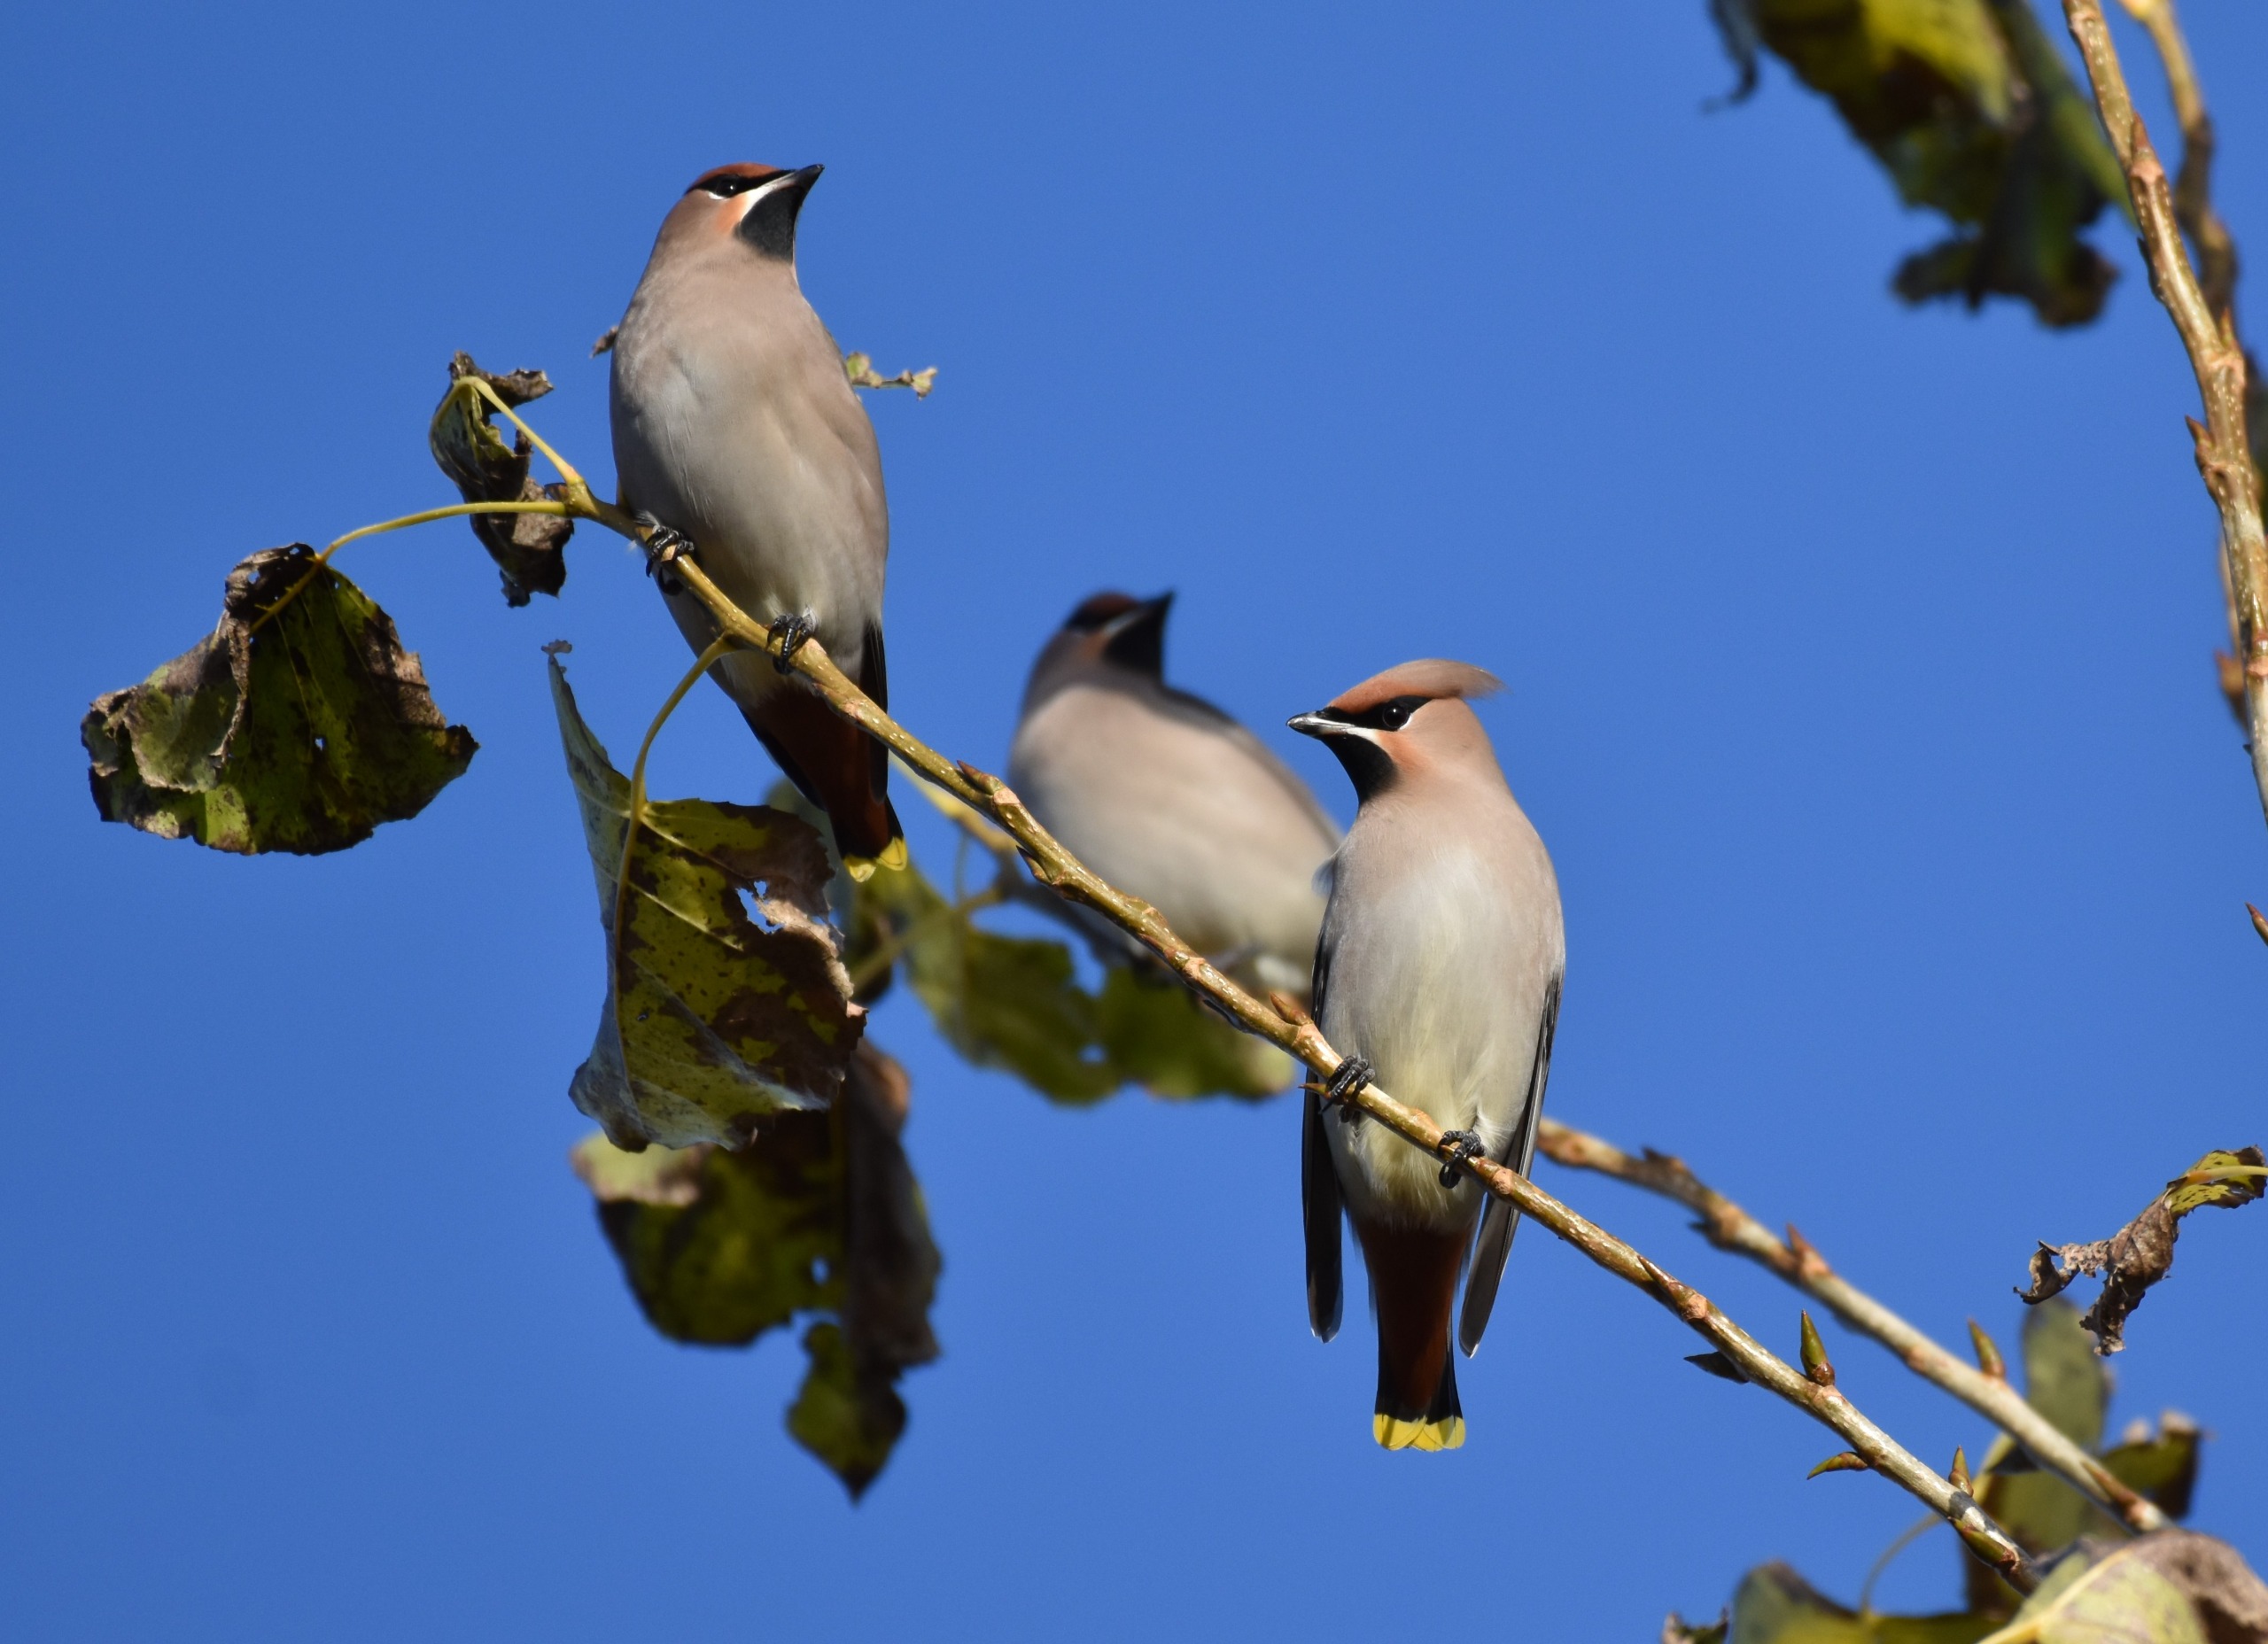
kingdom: Animalia
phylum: Chordata
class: Aves
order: Passeriformes
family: Bombycillidae
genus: Bombycilla
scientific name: Bombycilla garrulus
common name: Silkehale
